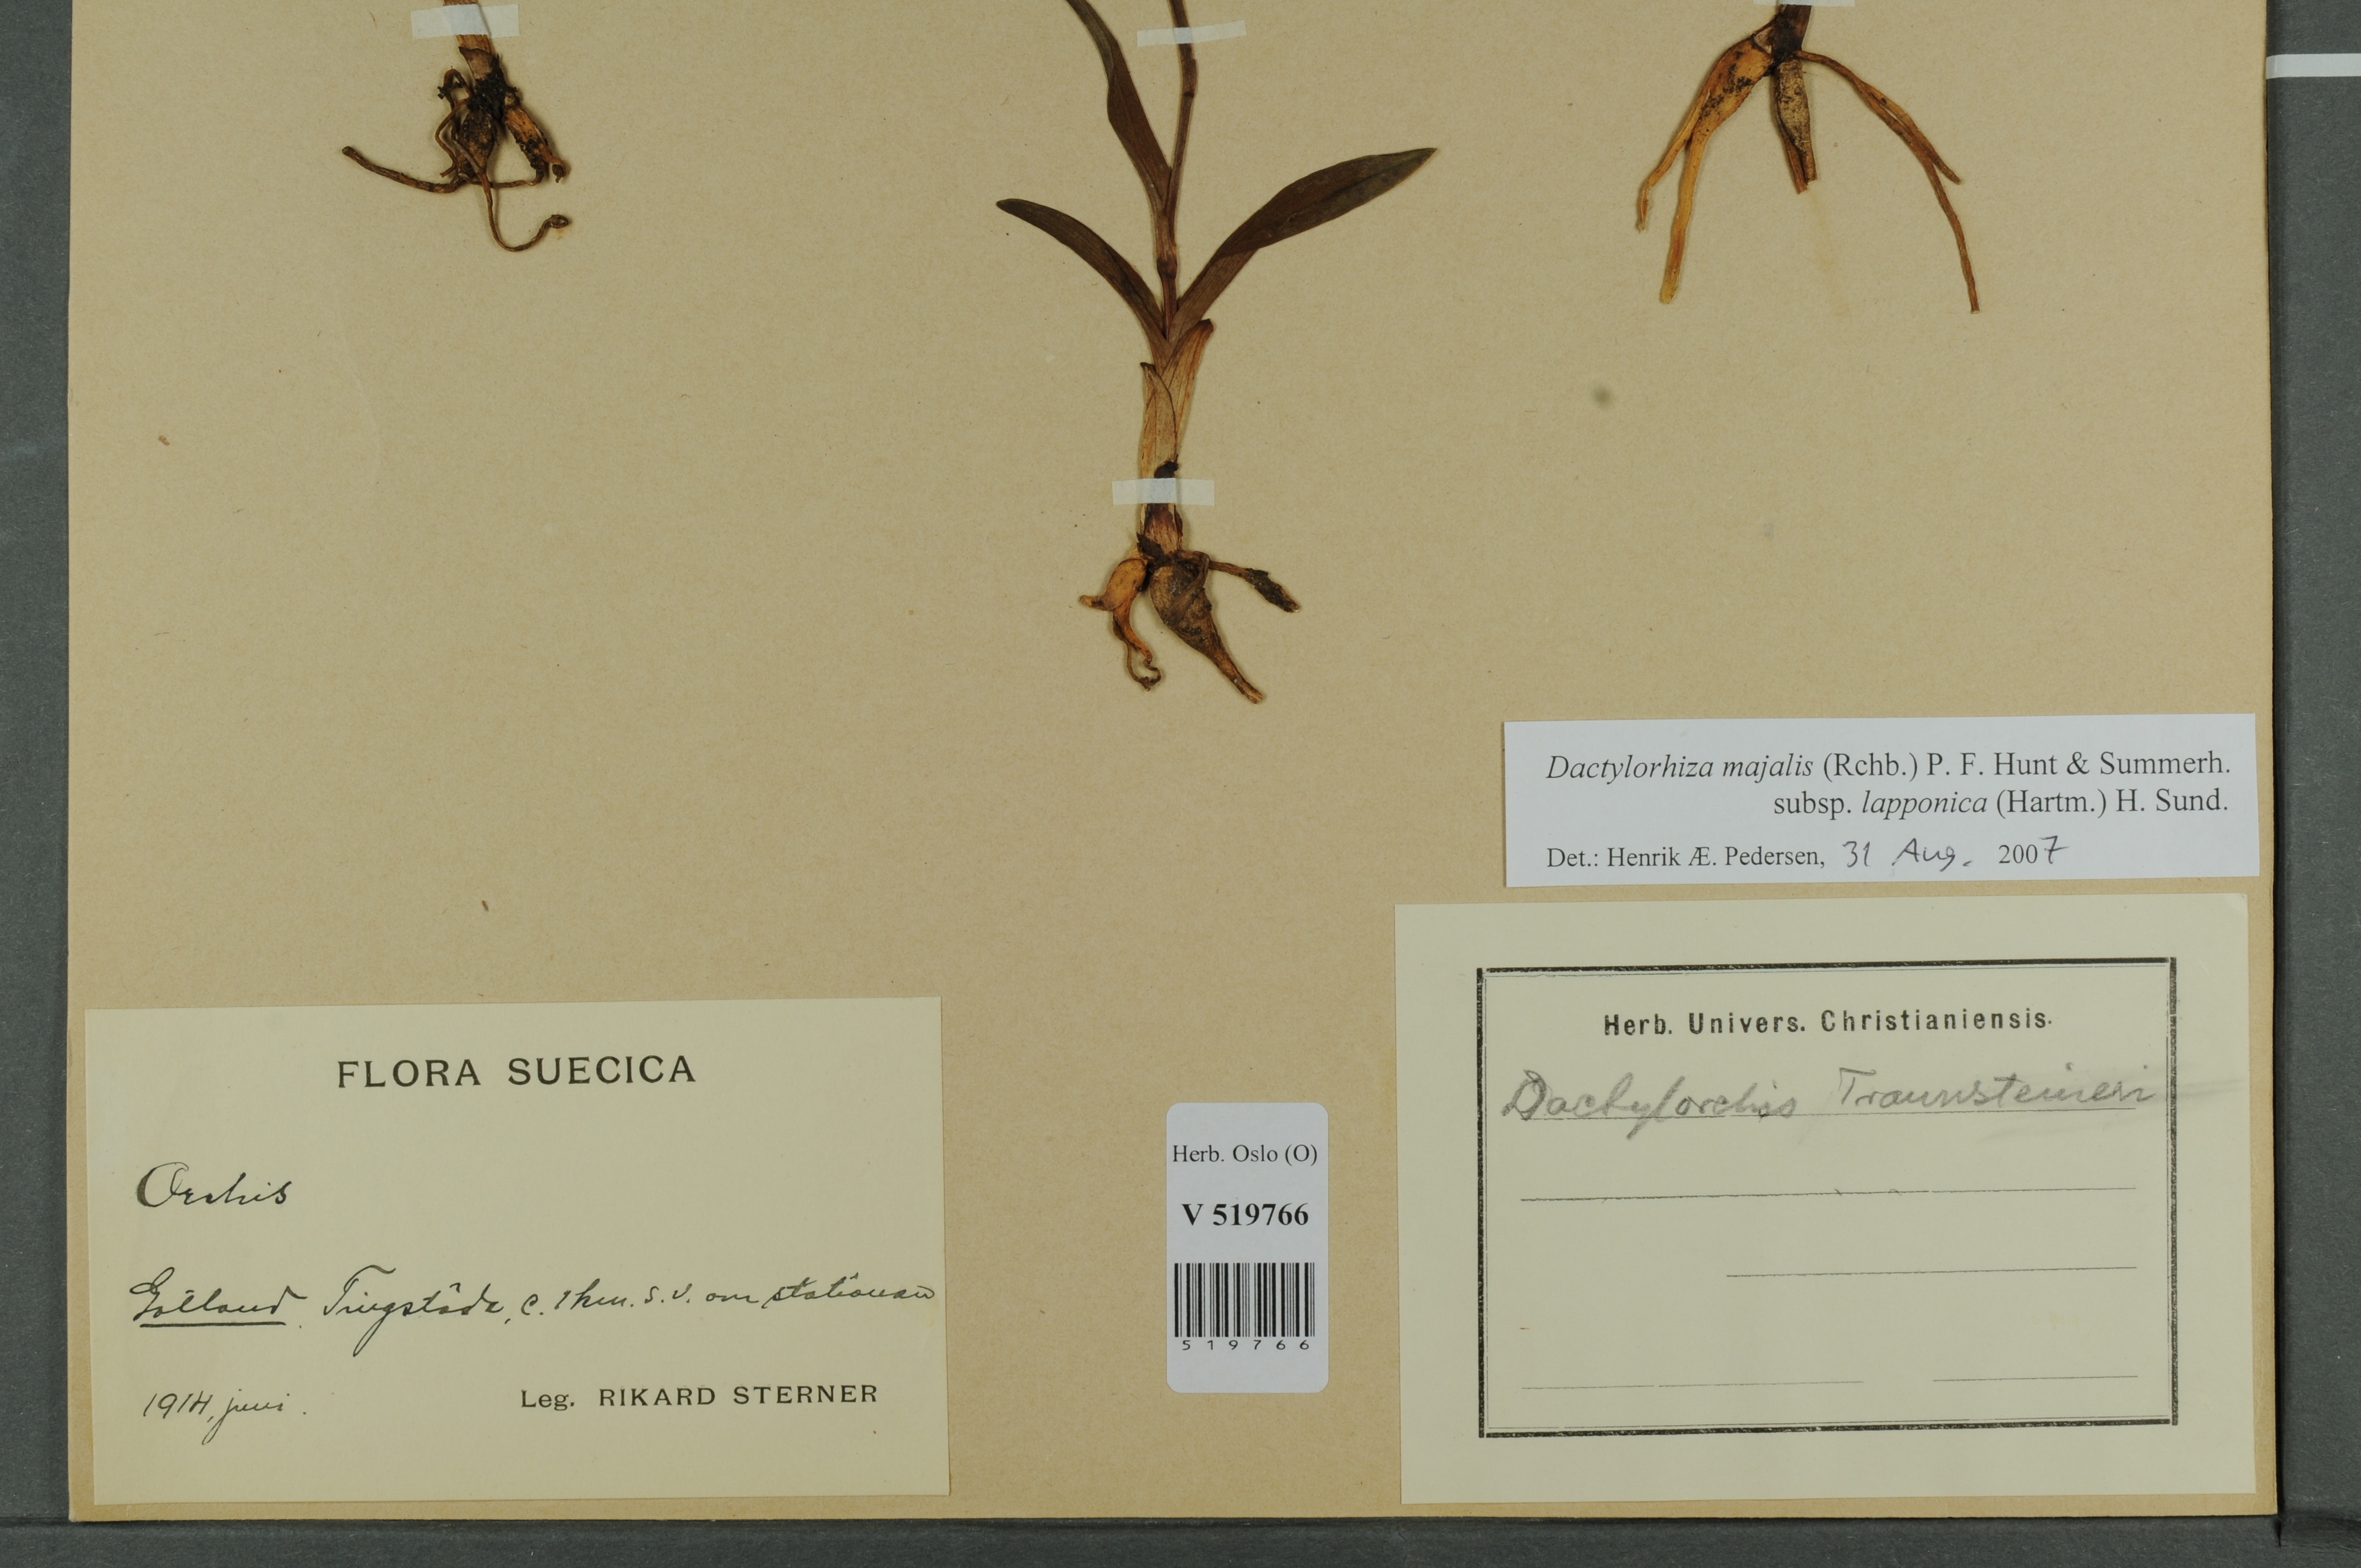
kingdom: Plantae
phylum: Tracheophyta
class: Liliopsida
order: Asparagales
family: Orchidaceae
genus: Dactylorhiza
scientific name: Dactylorhiza majalis
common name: Marsh orchid
